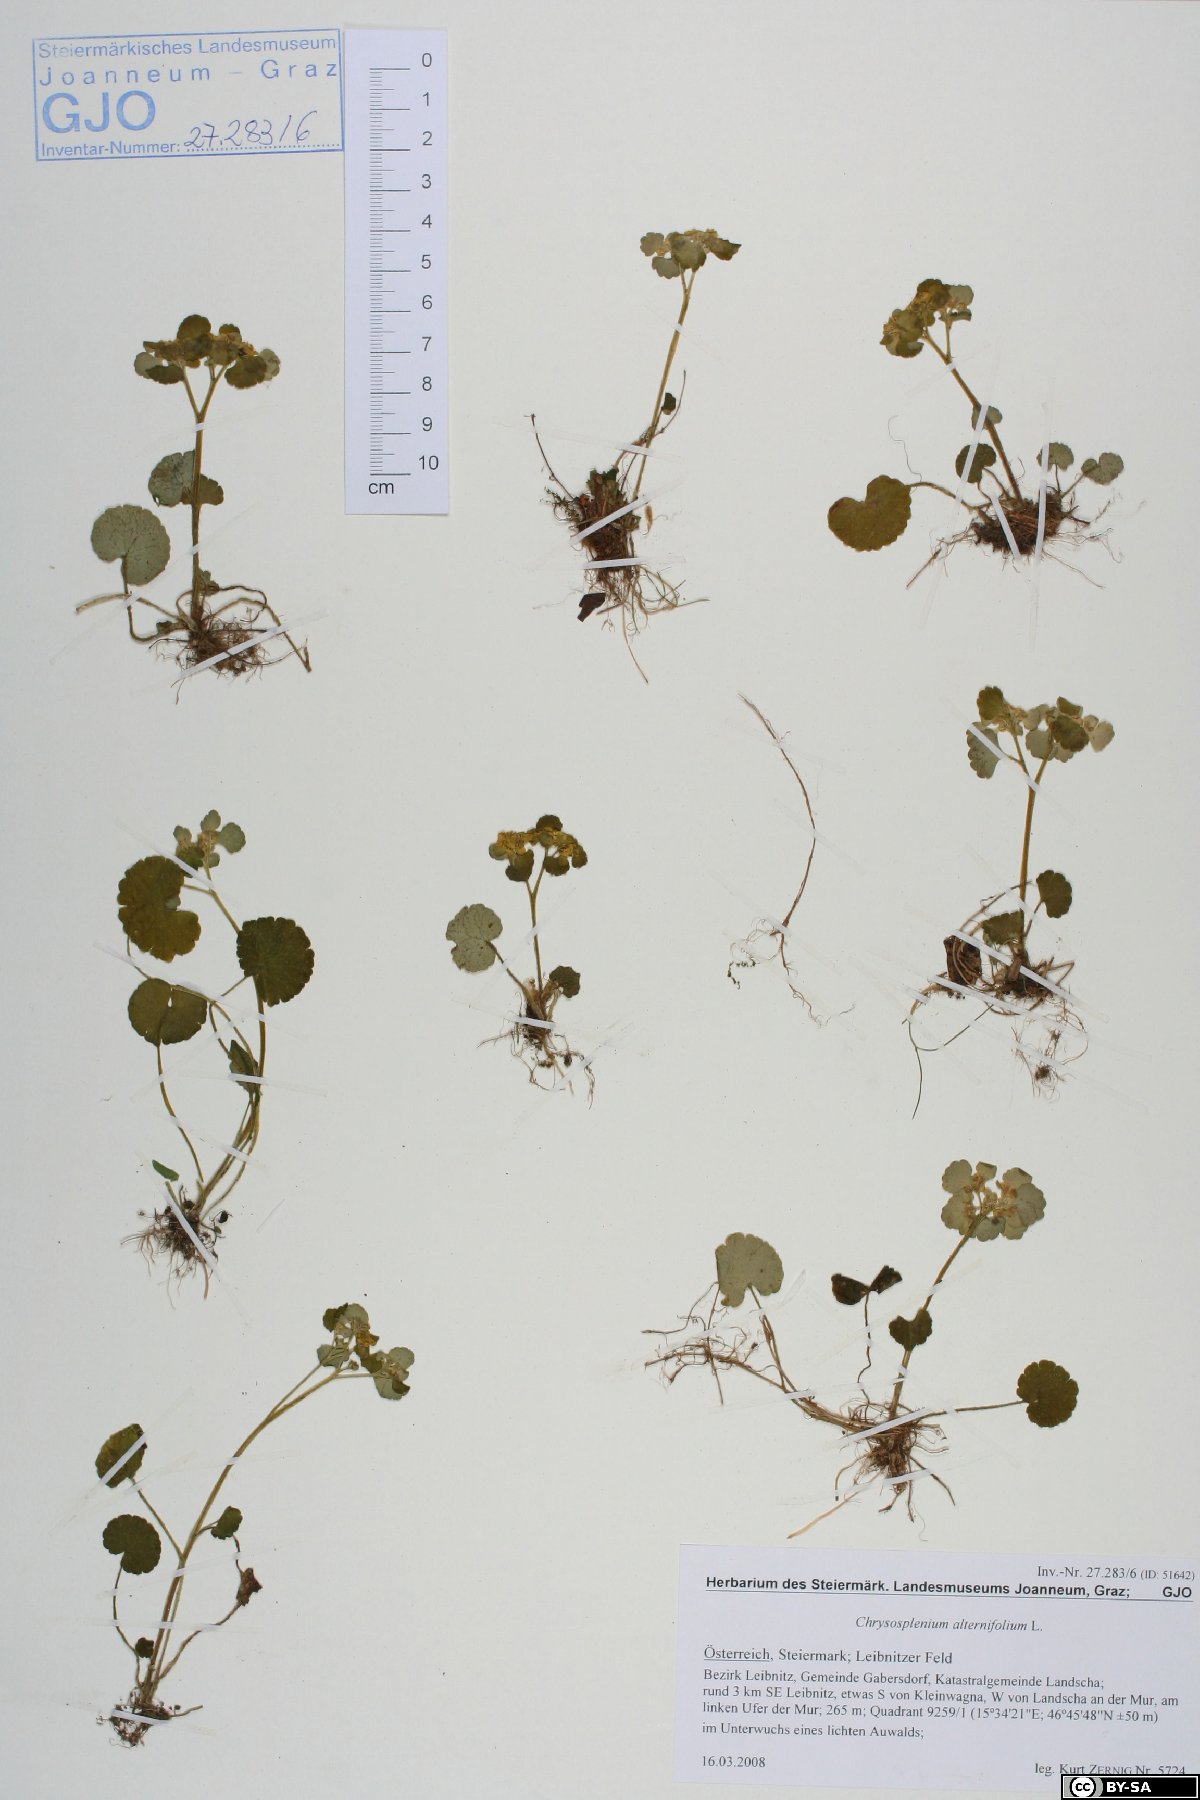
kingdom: Plantae
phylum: Tracheophyta
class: Magnoliopsida
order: Saxifragales
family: Saxifragaceae
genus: Chrysosplenium
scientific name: Chrysosplenium alternifolium
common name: Alternate-leaved golden-saxifrage
